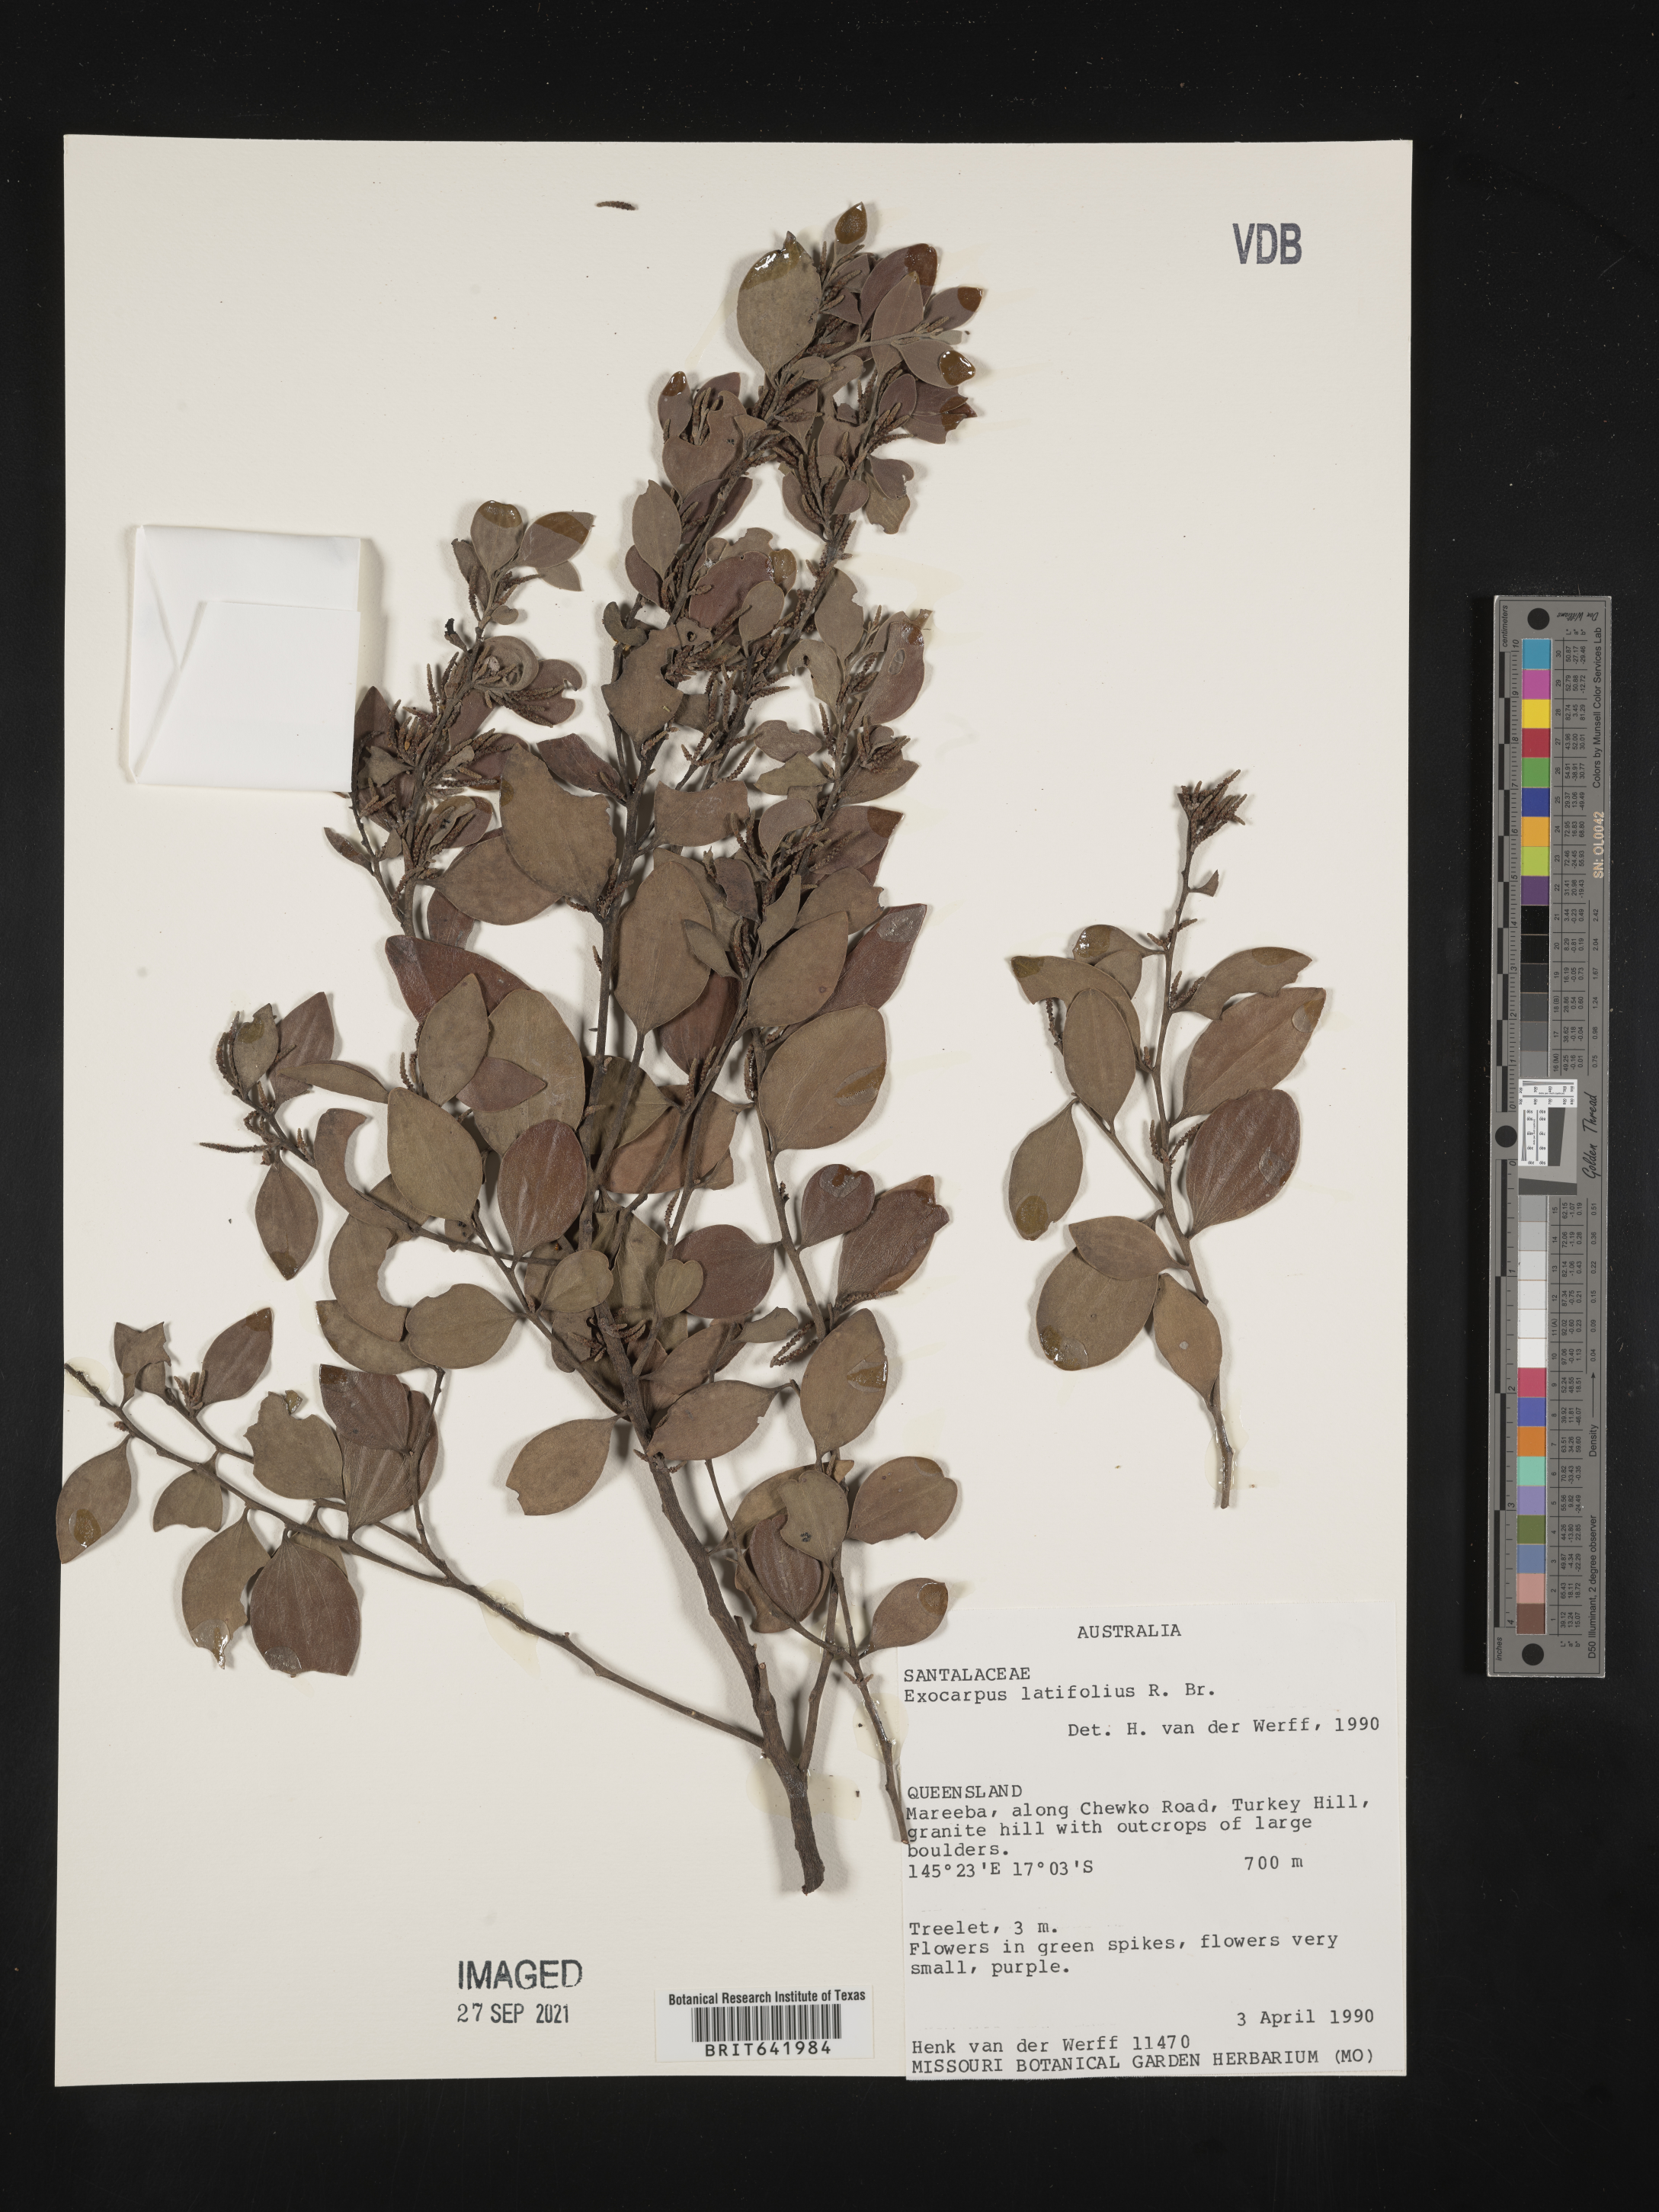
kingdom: Plantae
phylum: Tracheophyta
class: Magnoliopsida
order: Santalales
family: Santalaceae
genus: Exocarpos
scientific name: Exocarpos
